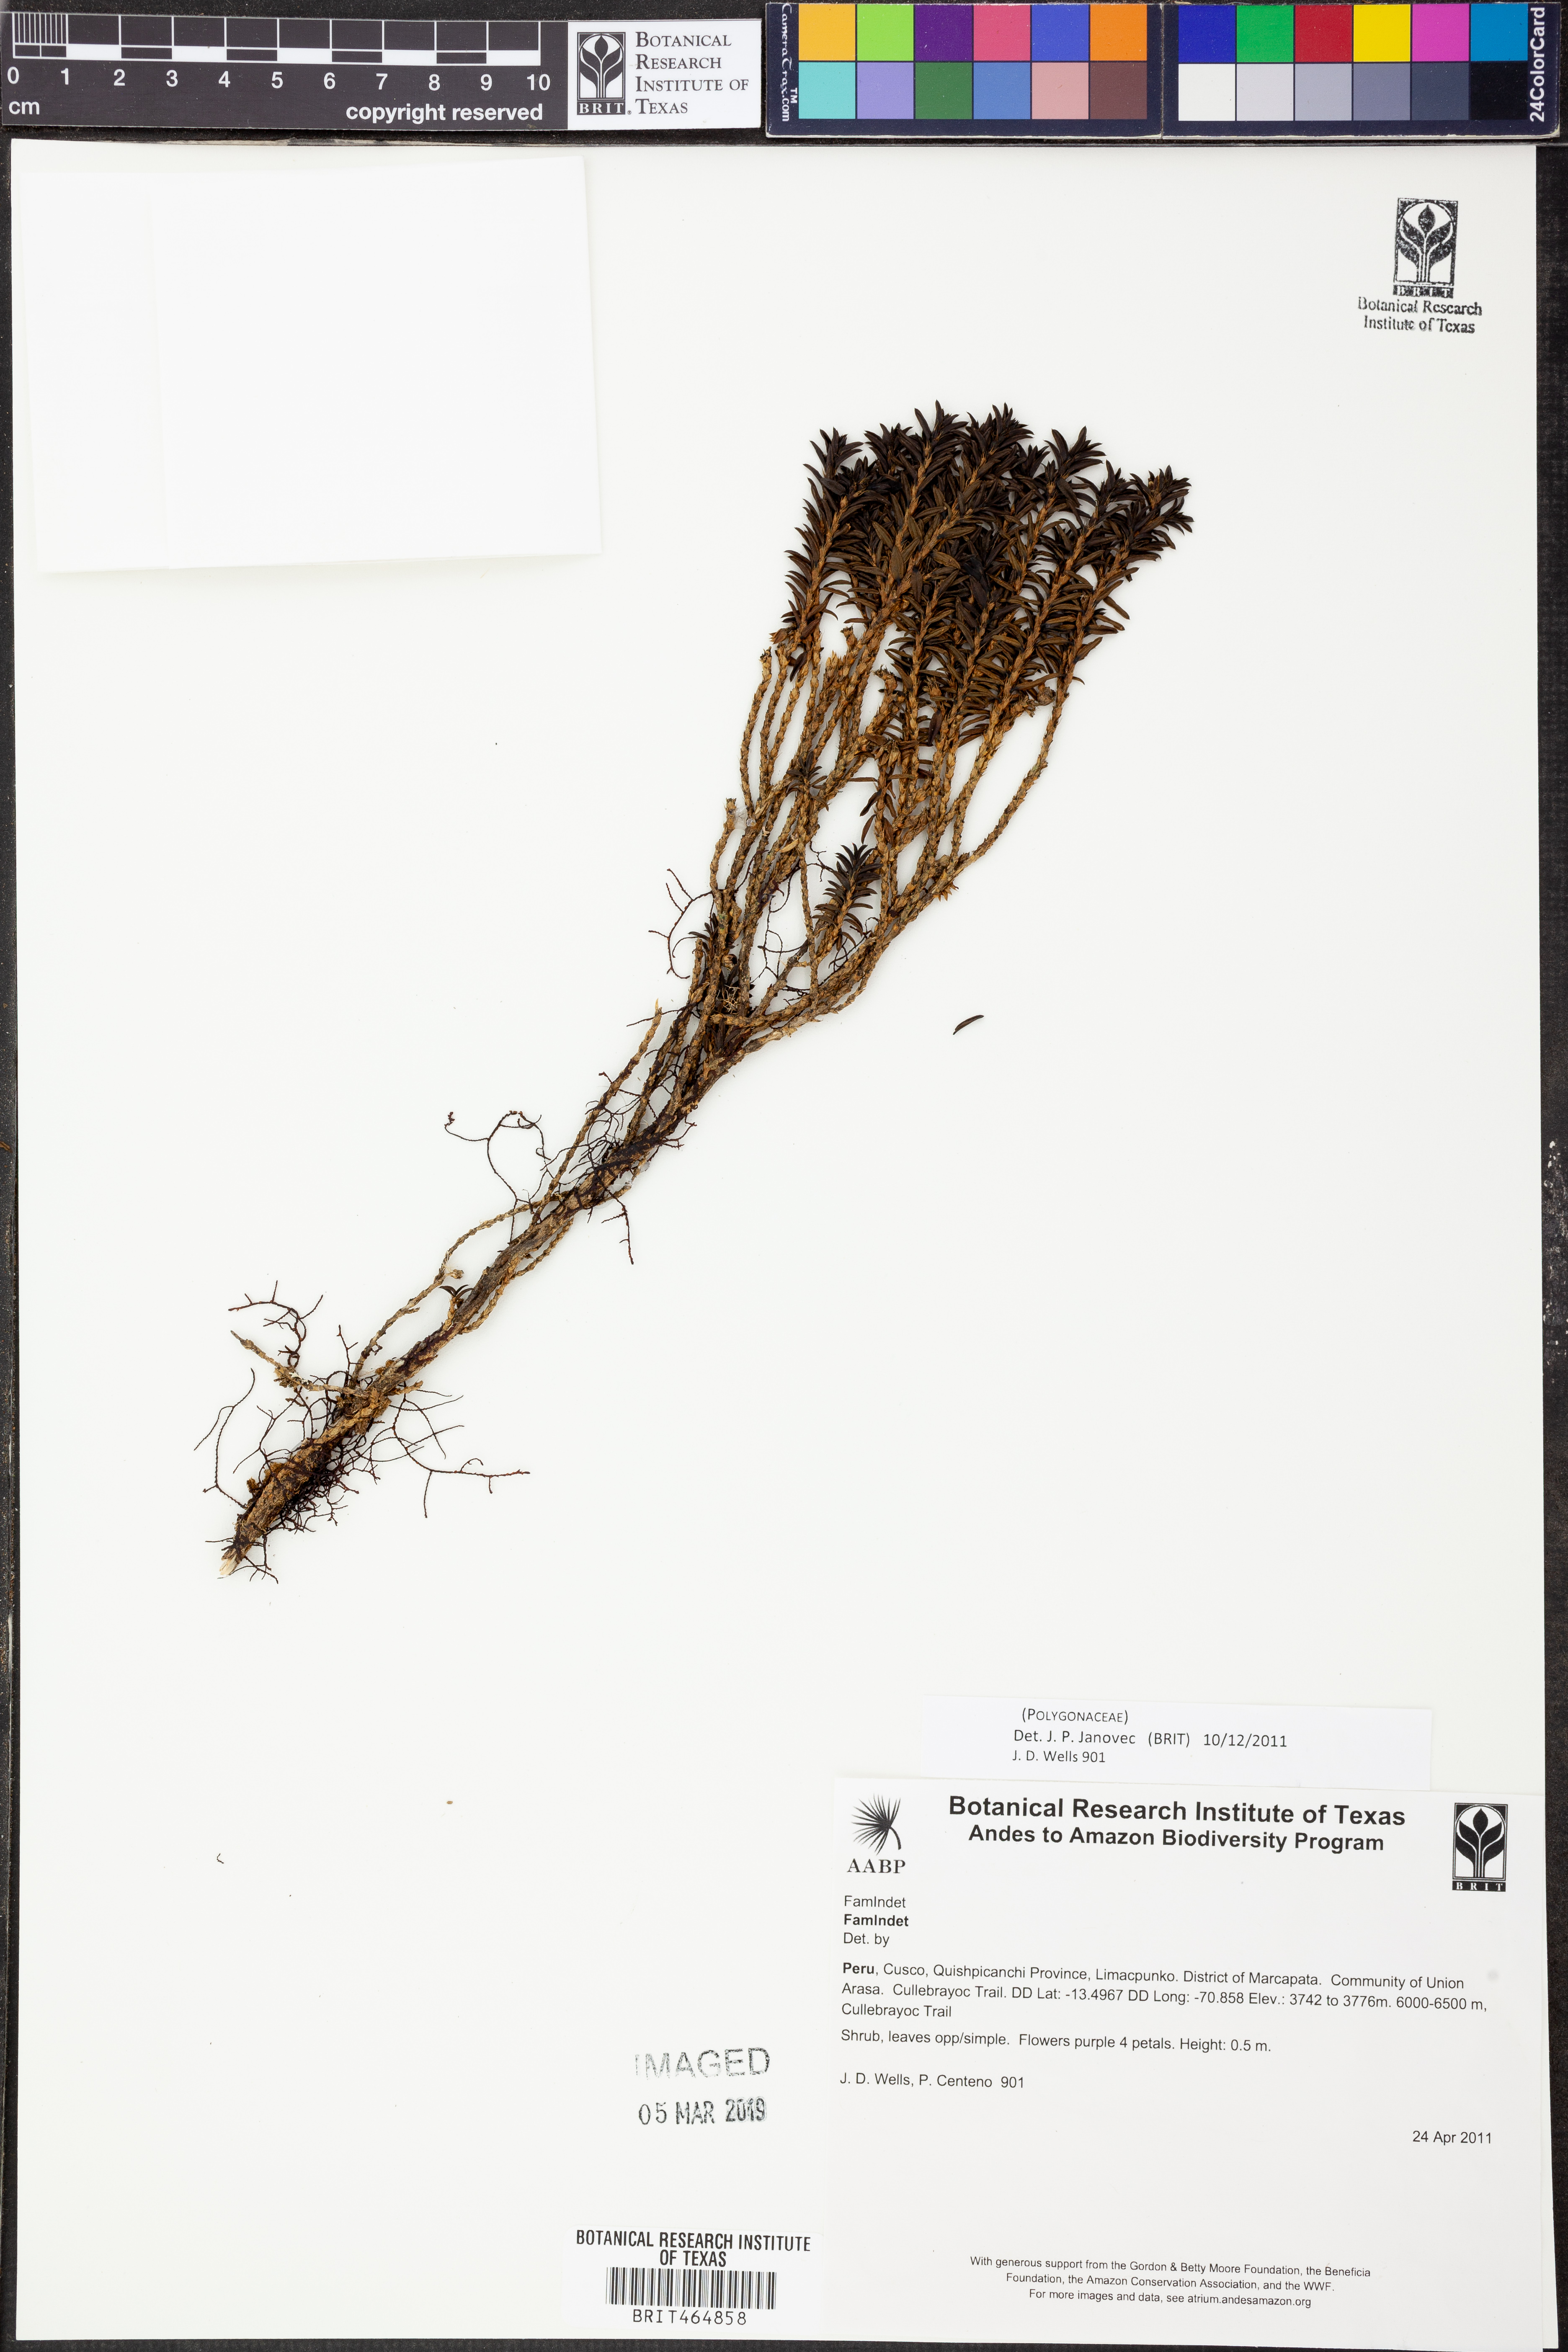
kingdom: Plantae
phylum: Tracheophyta
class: Magnoliopsida
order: Caryophyllales
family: Polygonaceae
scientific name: Polygonaceae
